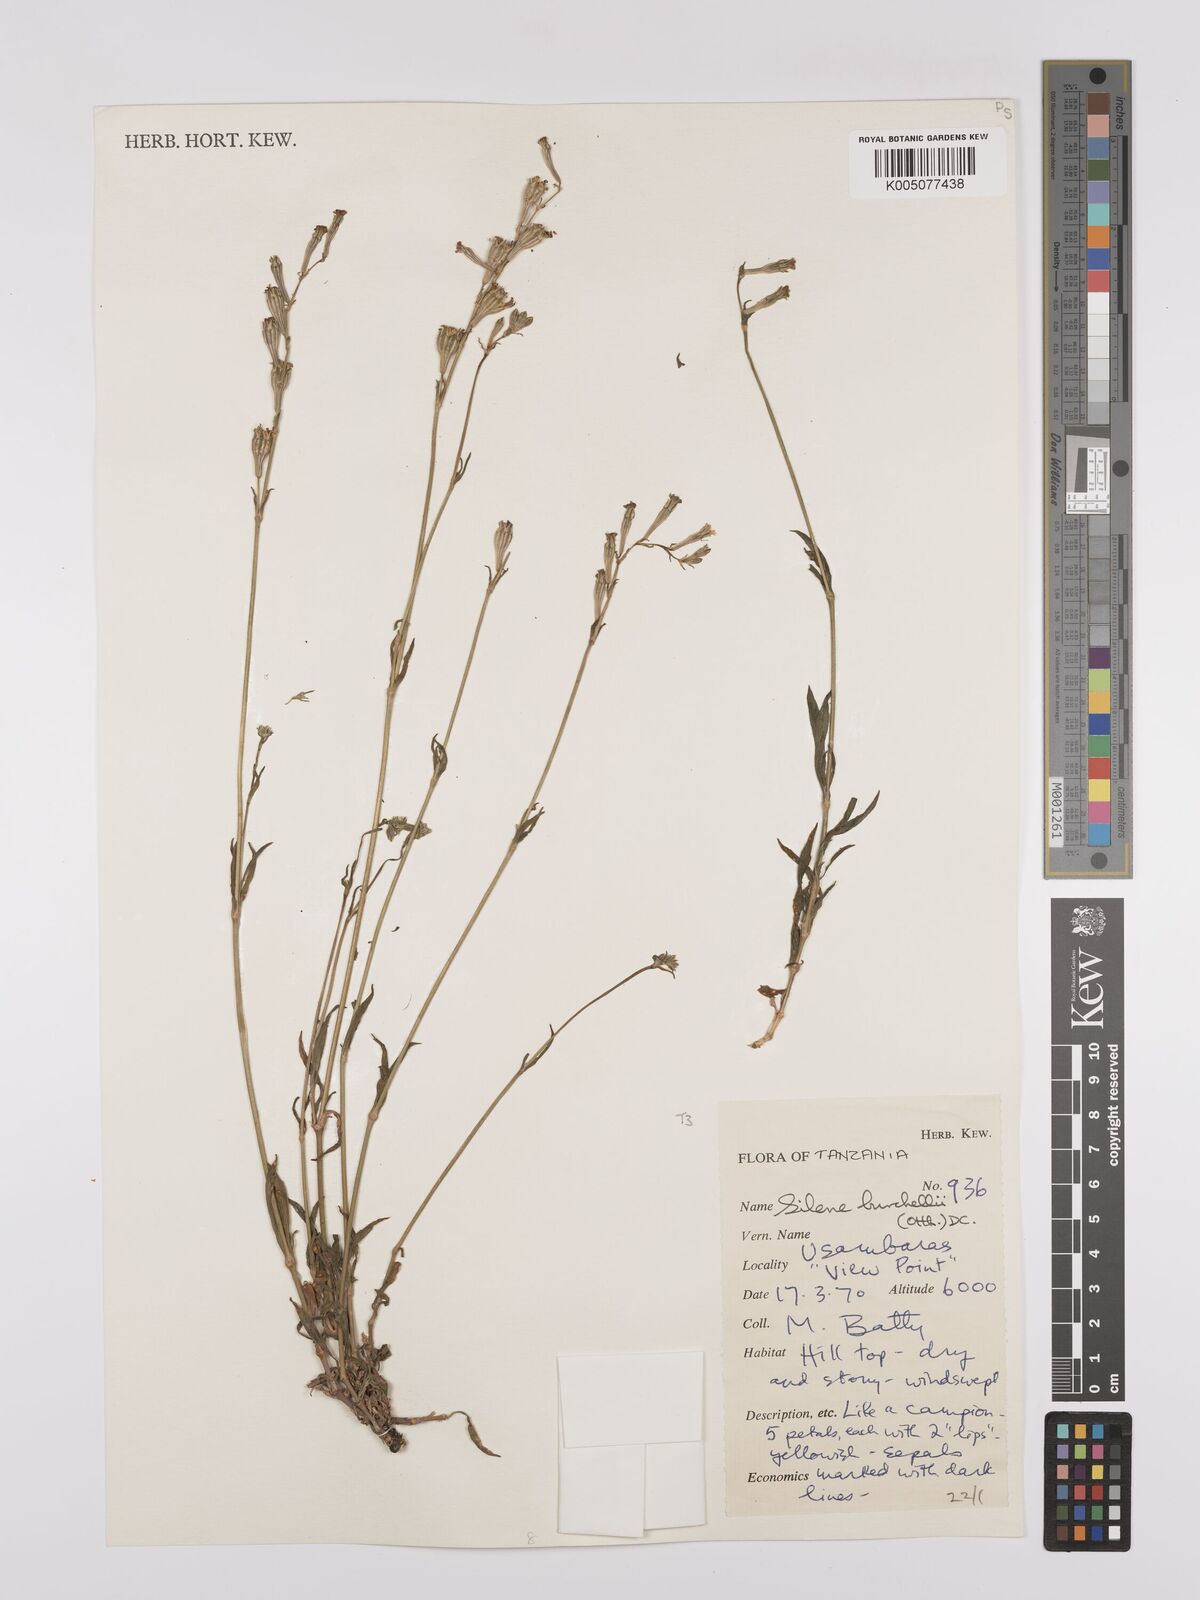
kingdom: Plantae
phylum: Tracheophyta
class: Magnoliopsida
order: Caryophyllales
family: Caryophyllaceae
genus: Silene
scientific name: Silene burchellii
